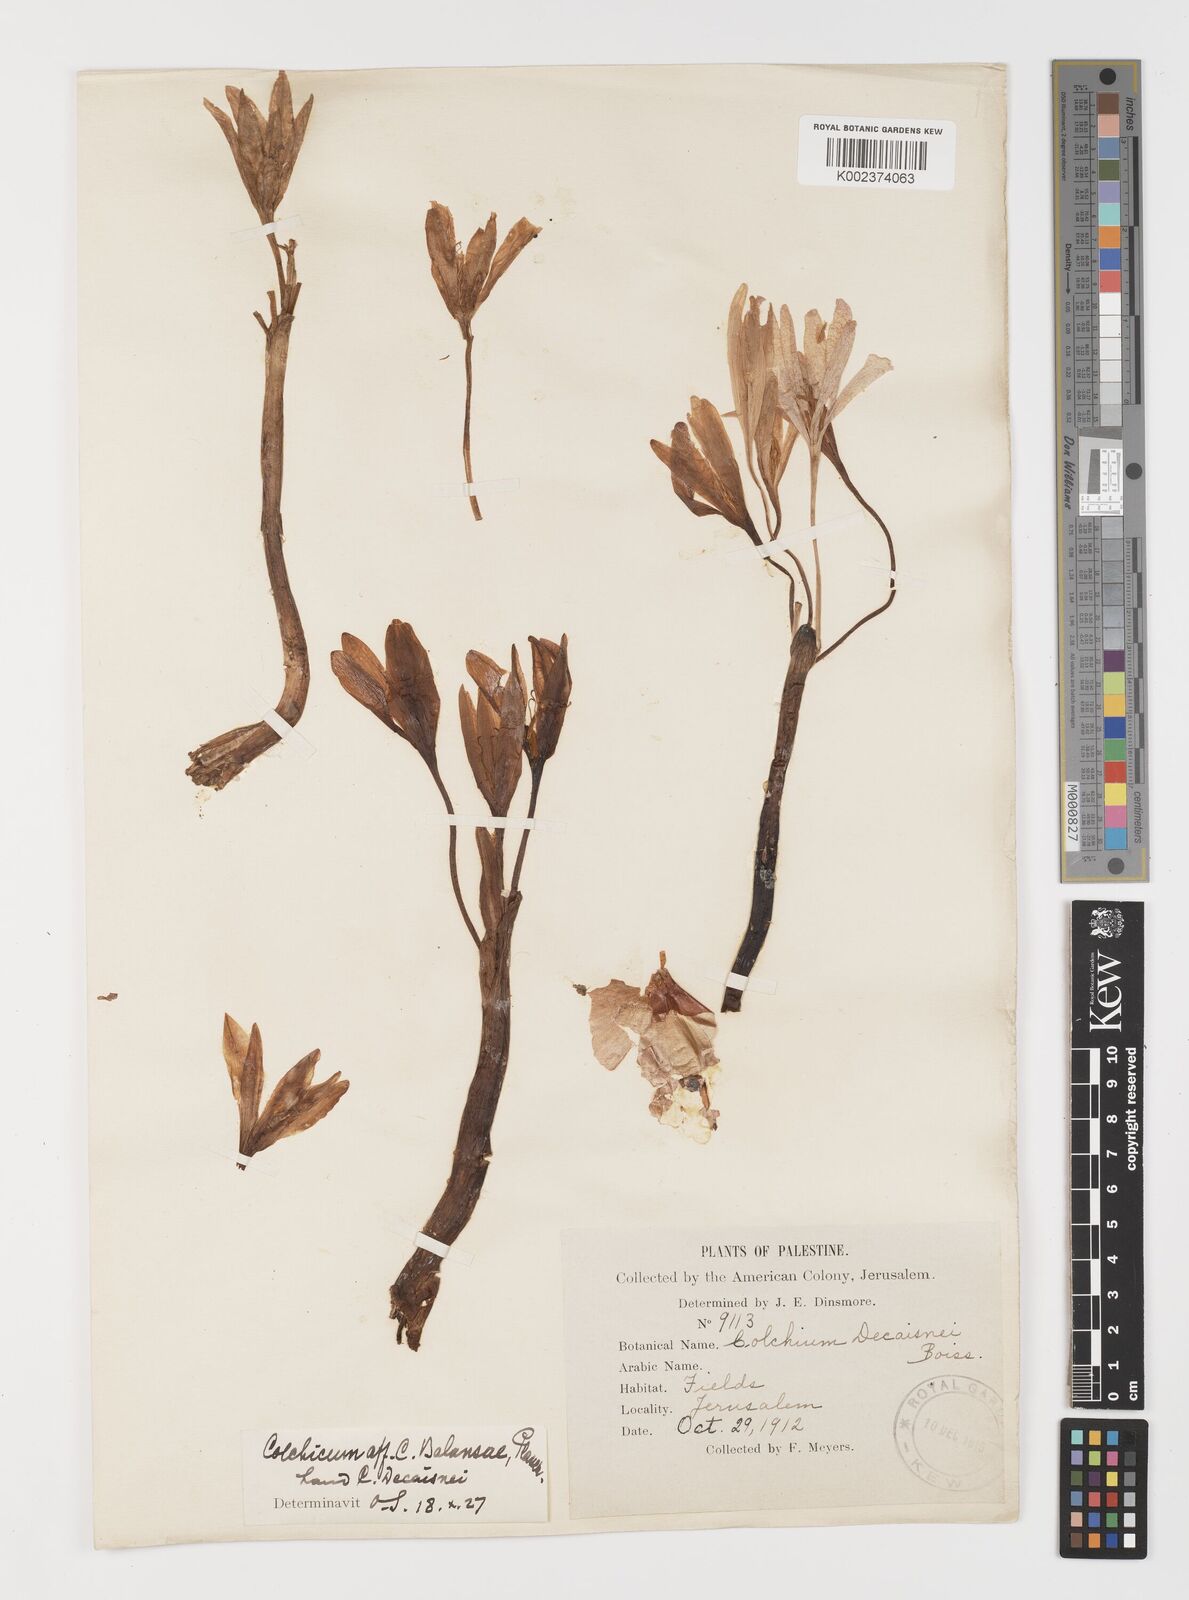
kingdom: Plantae
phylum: Tracheophyta
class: Liliopsida
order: Liliales
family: Colchicaceae
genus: Colchicum
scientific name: Colchicum balansae
